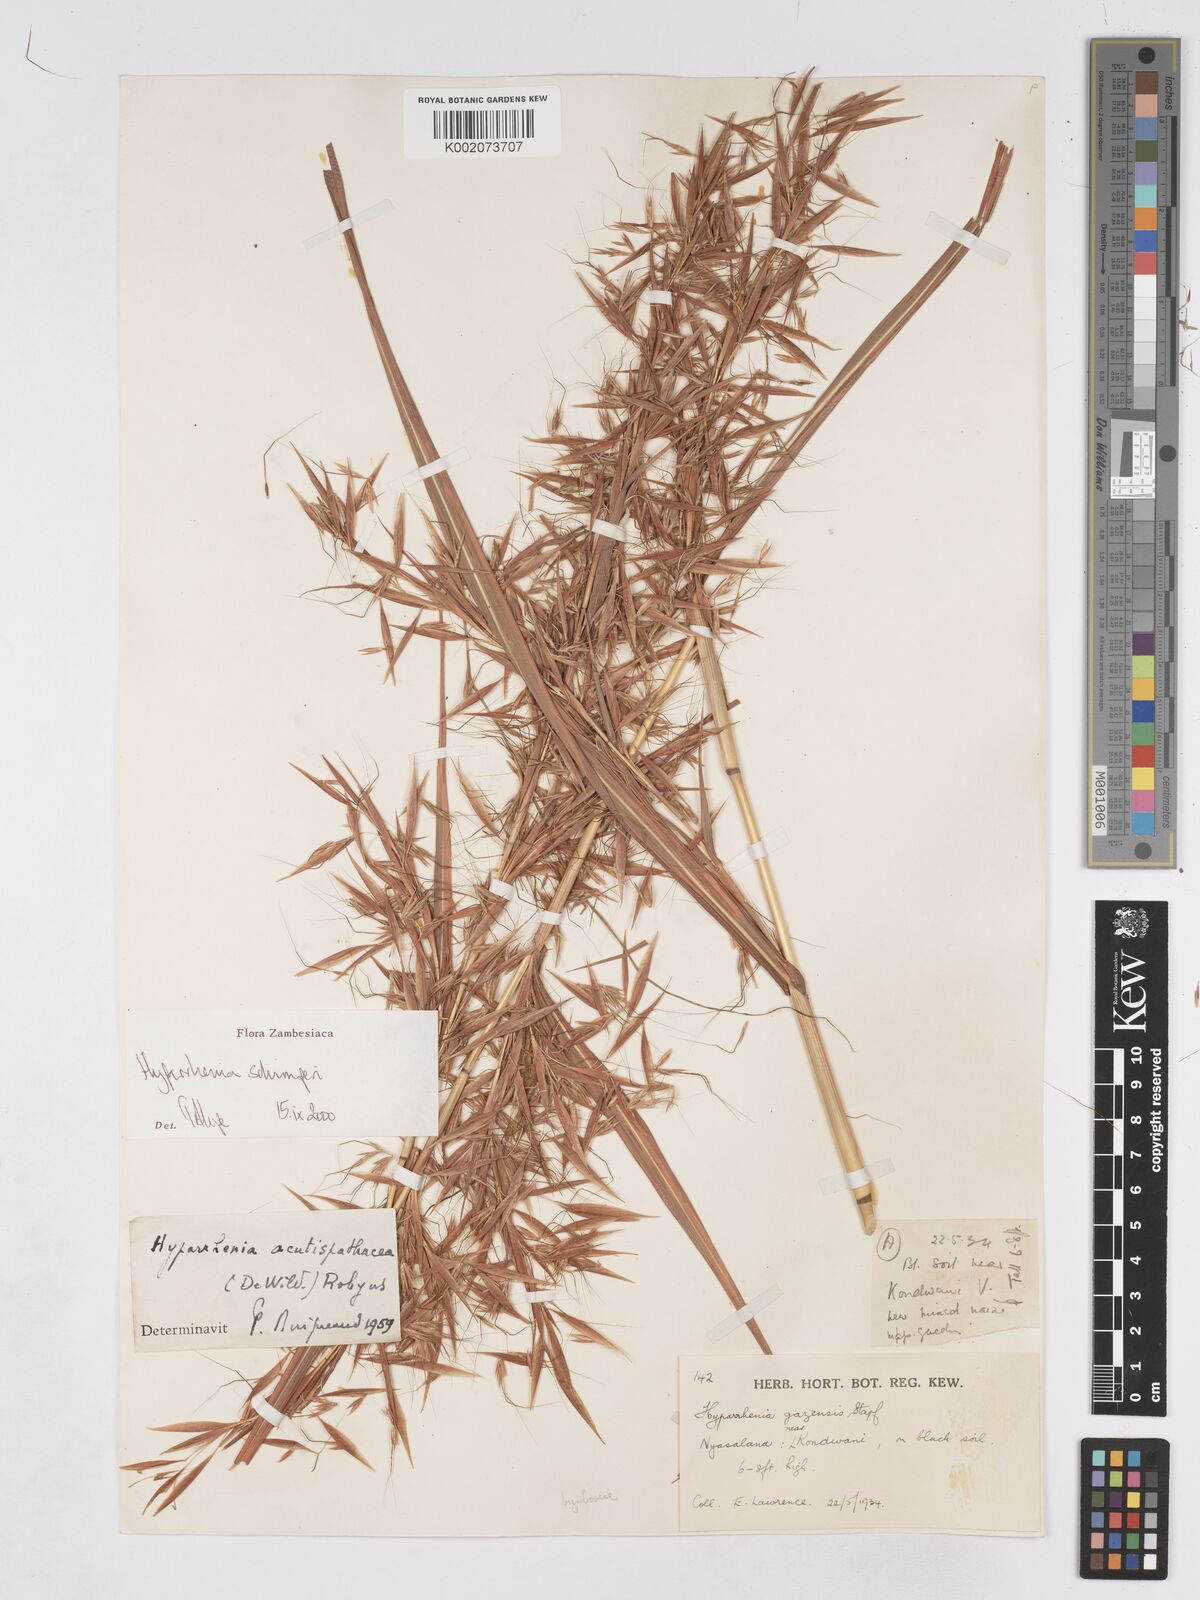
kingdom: Plantae
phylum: Tracheophyta
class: Liliopsida
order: Poales
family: Poaceae
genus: Hyparrhenia
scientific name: Hyparrhenia schimperi
